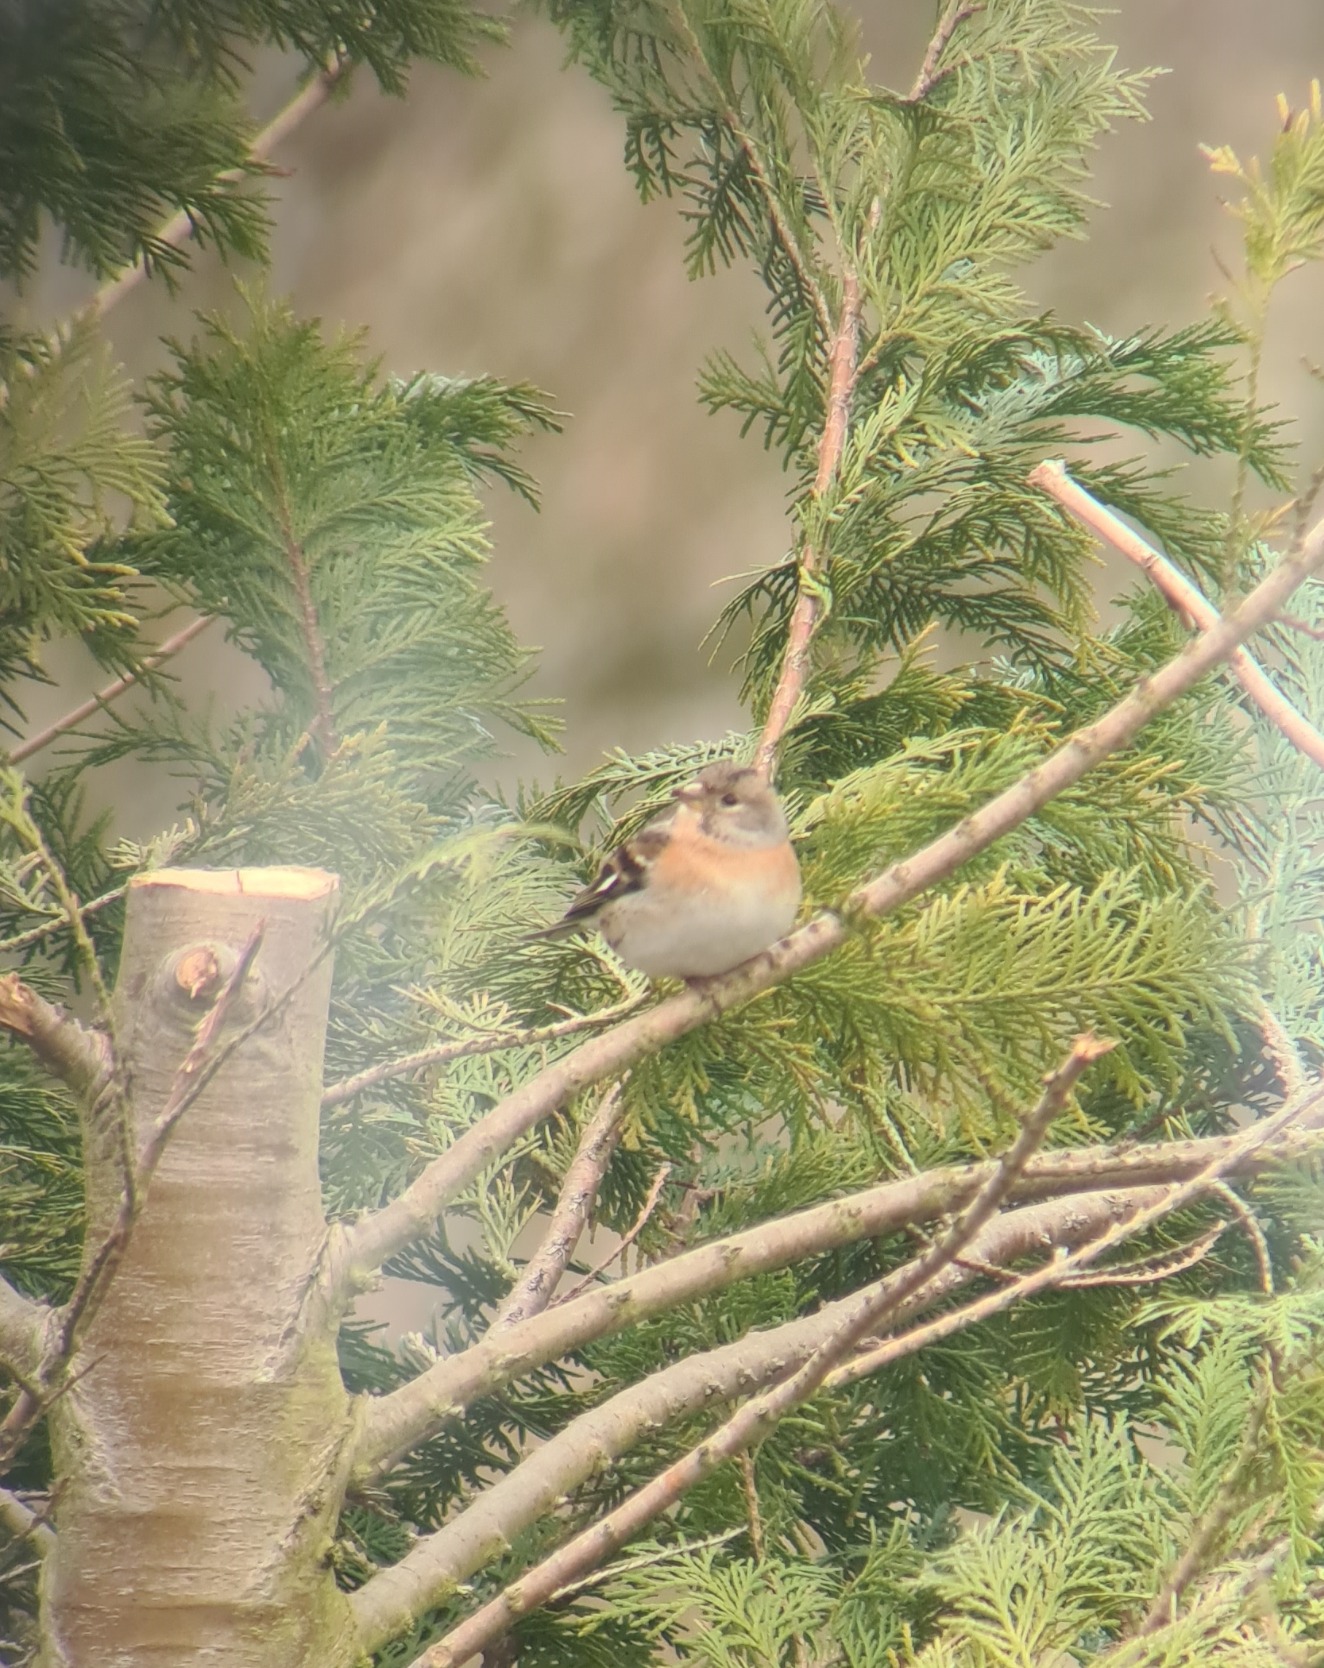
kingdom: Animalia
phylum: Chordata
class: Aves
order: Passeriformes
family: Fringillidae
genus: Fringilla
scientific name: Fringilla montifringilla
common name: Kvækerfinke
